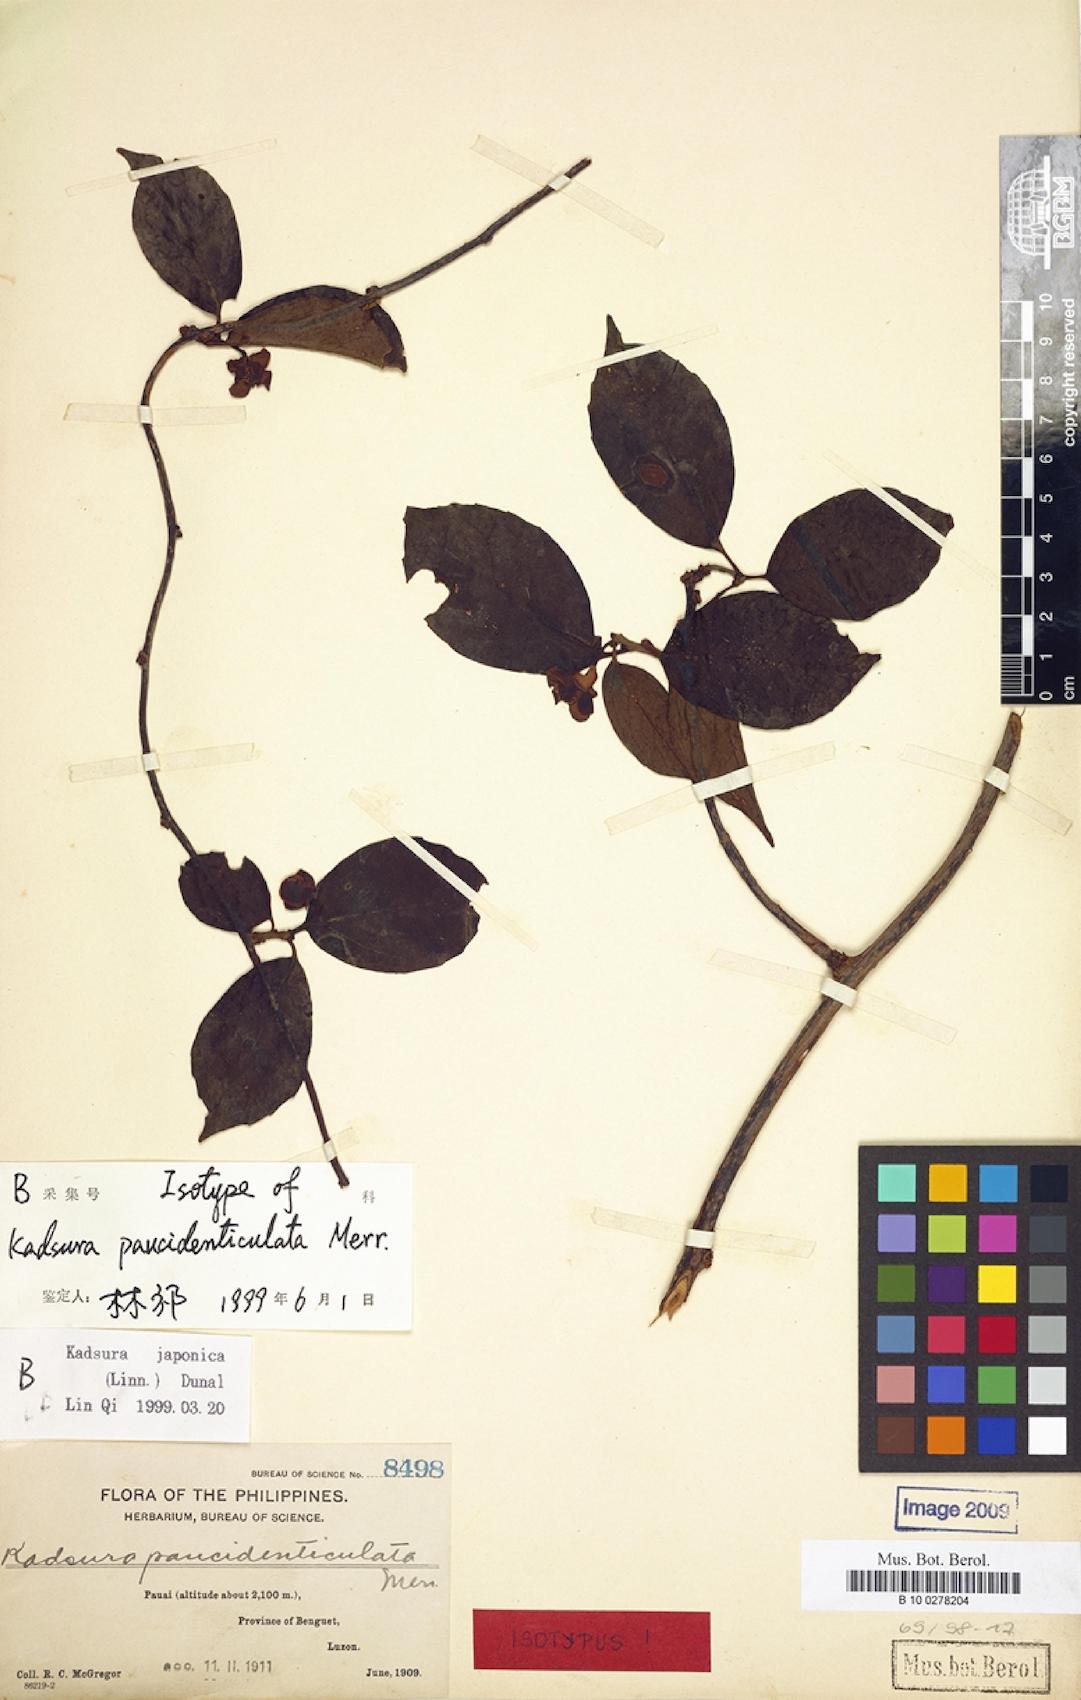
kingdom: Plantae
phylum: Tracheophyta
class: Magnoliopsida
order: Austrobaileyales
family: Schisandraceae
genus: Kadsura
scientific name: Kadsura japonica
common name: Japanese kadsura
